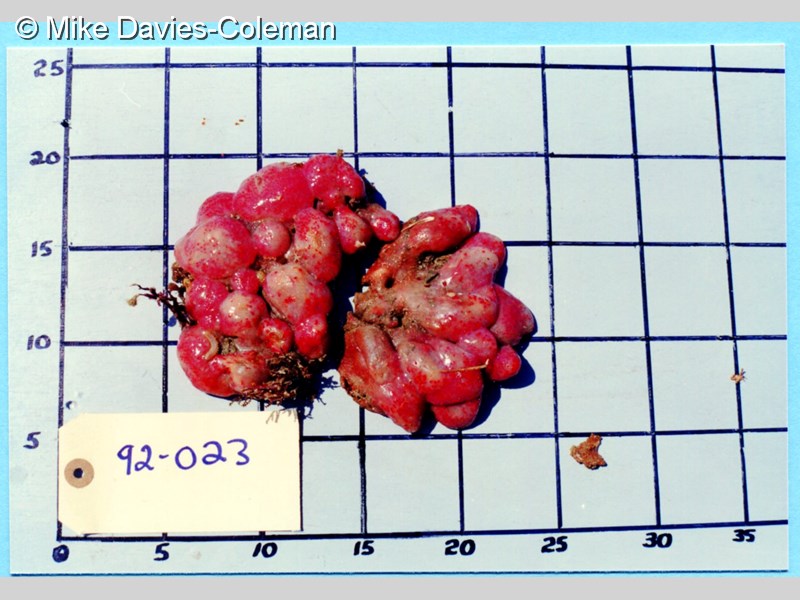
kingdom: Animalia
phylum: Chordata
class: Ascidiacea
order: Aplousobranchia
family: Pseudodistomidae
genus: Pseudodistoma
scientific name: Pseudodistoma
